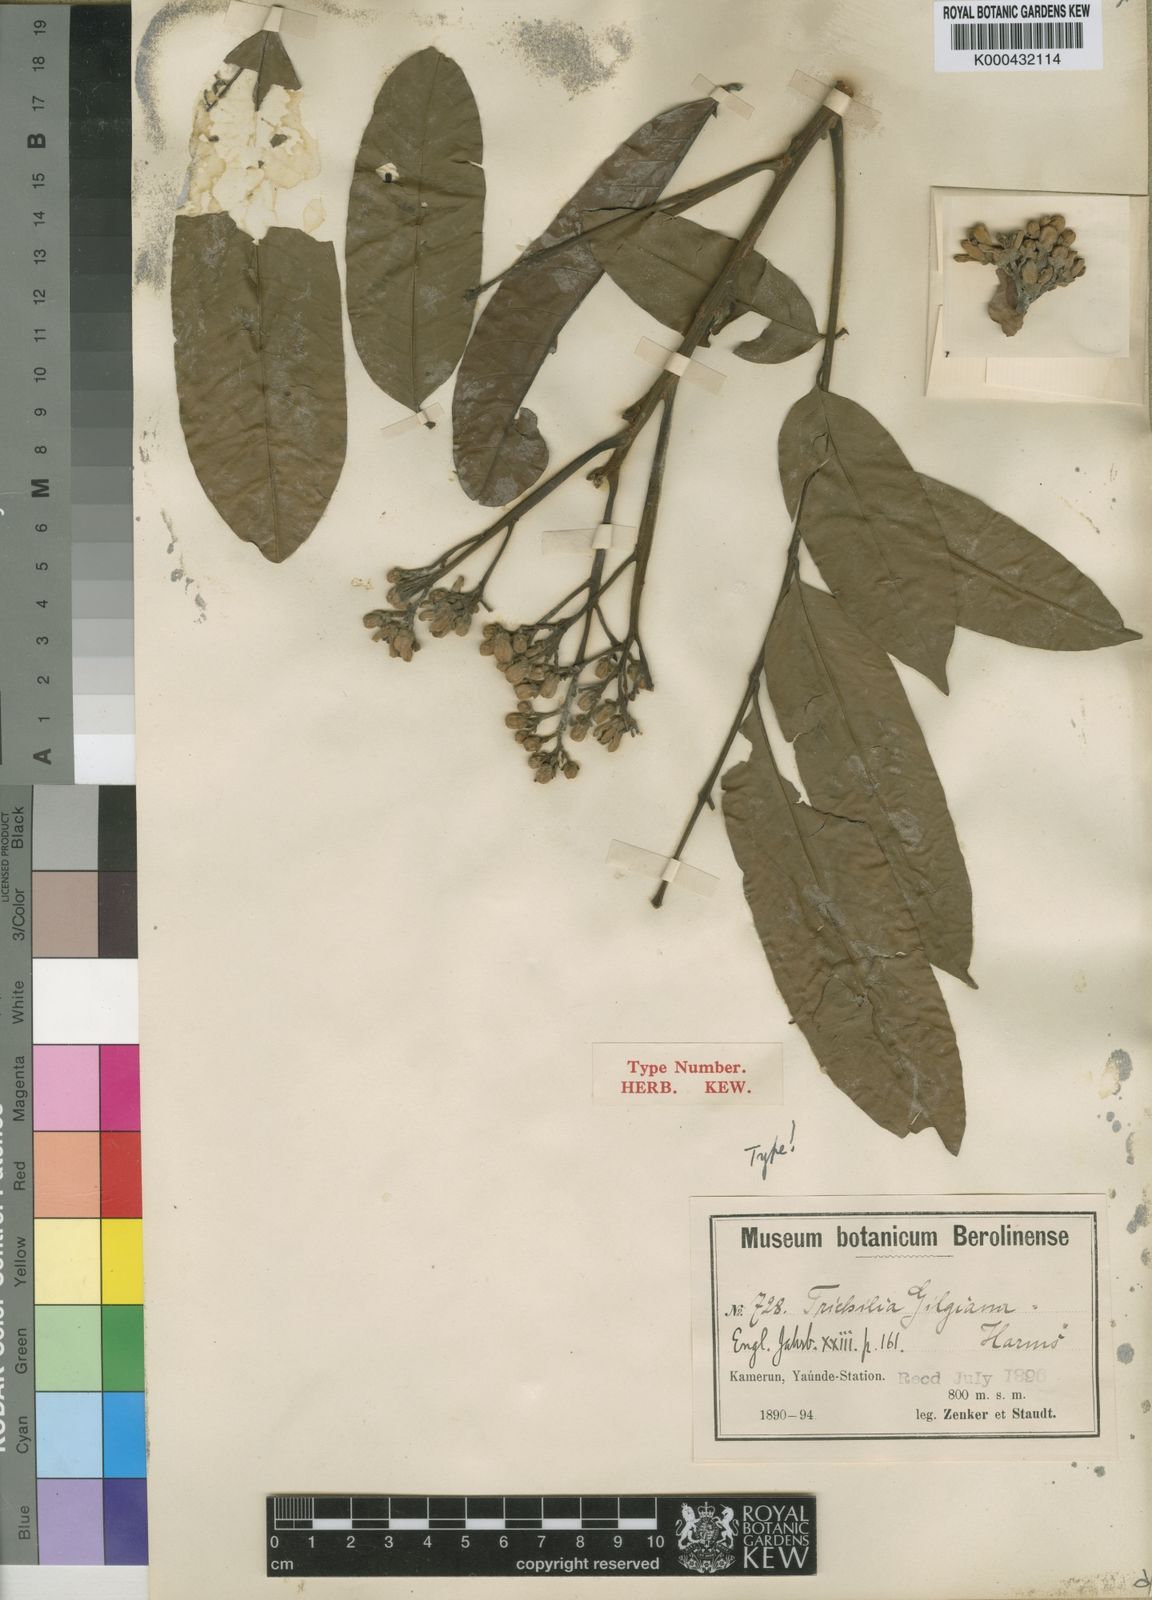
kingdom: Plantae
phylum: Tracheophyta
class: Magnoliopsida
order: Sapindales
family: Meliaceae
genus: Trichilia
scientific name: Trichilia gilgiana
